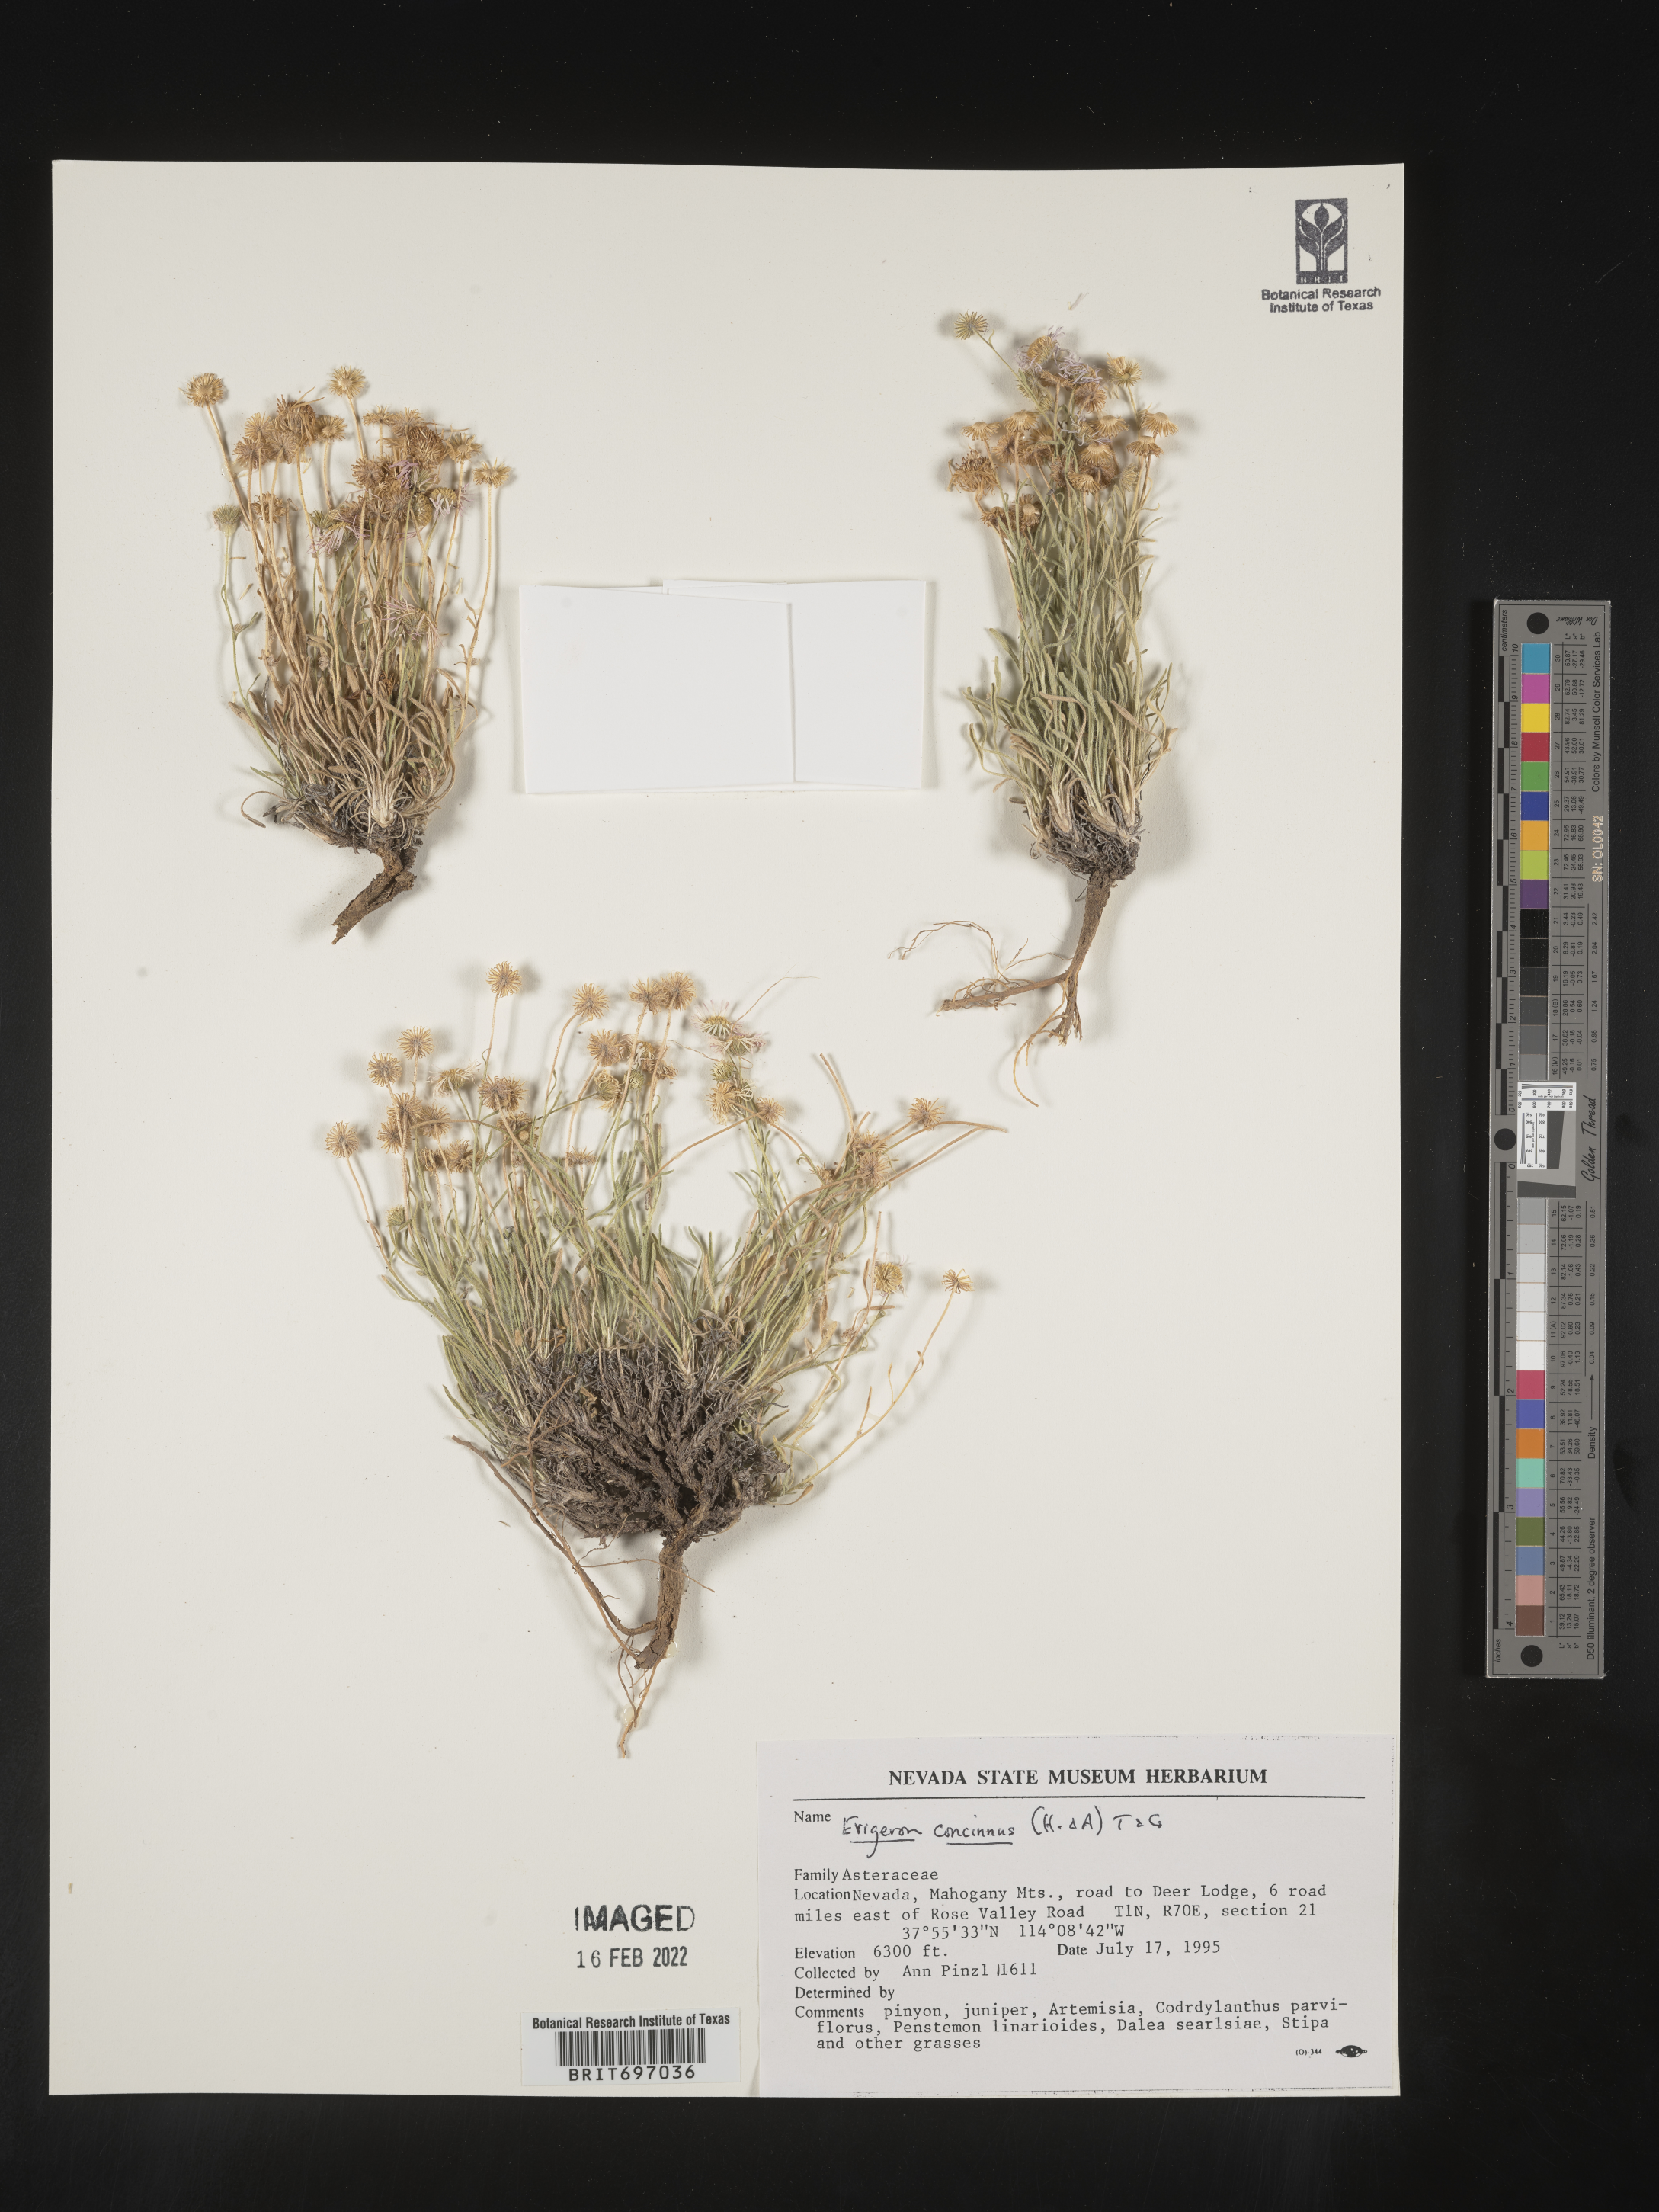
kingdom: Plantae
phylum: Tracheophyta
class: Magnoliopsida
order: Asterales
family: Asteraceae
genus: Erigeron
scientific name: Erigeron concinnus
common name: Navajo fleabane
